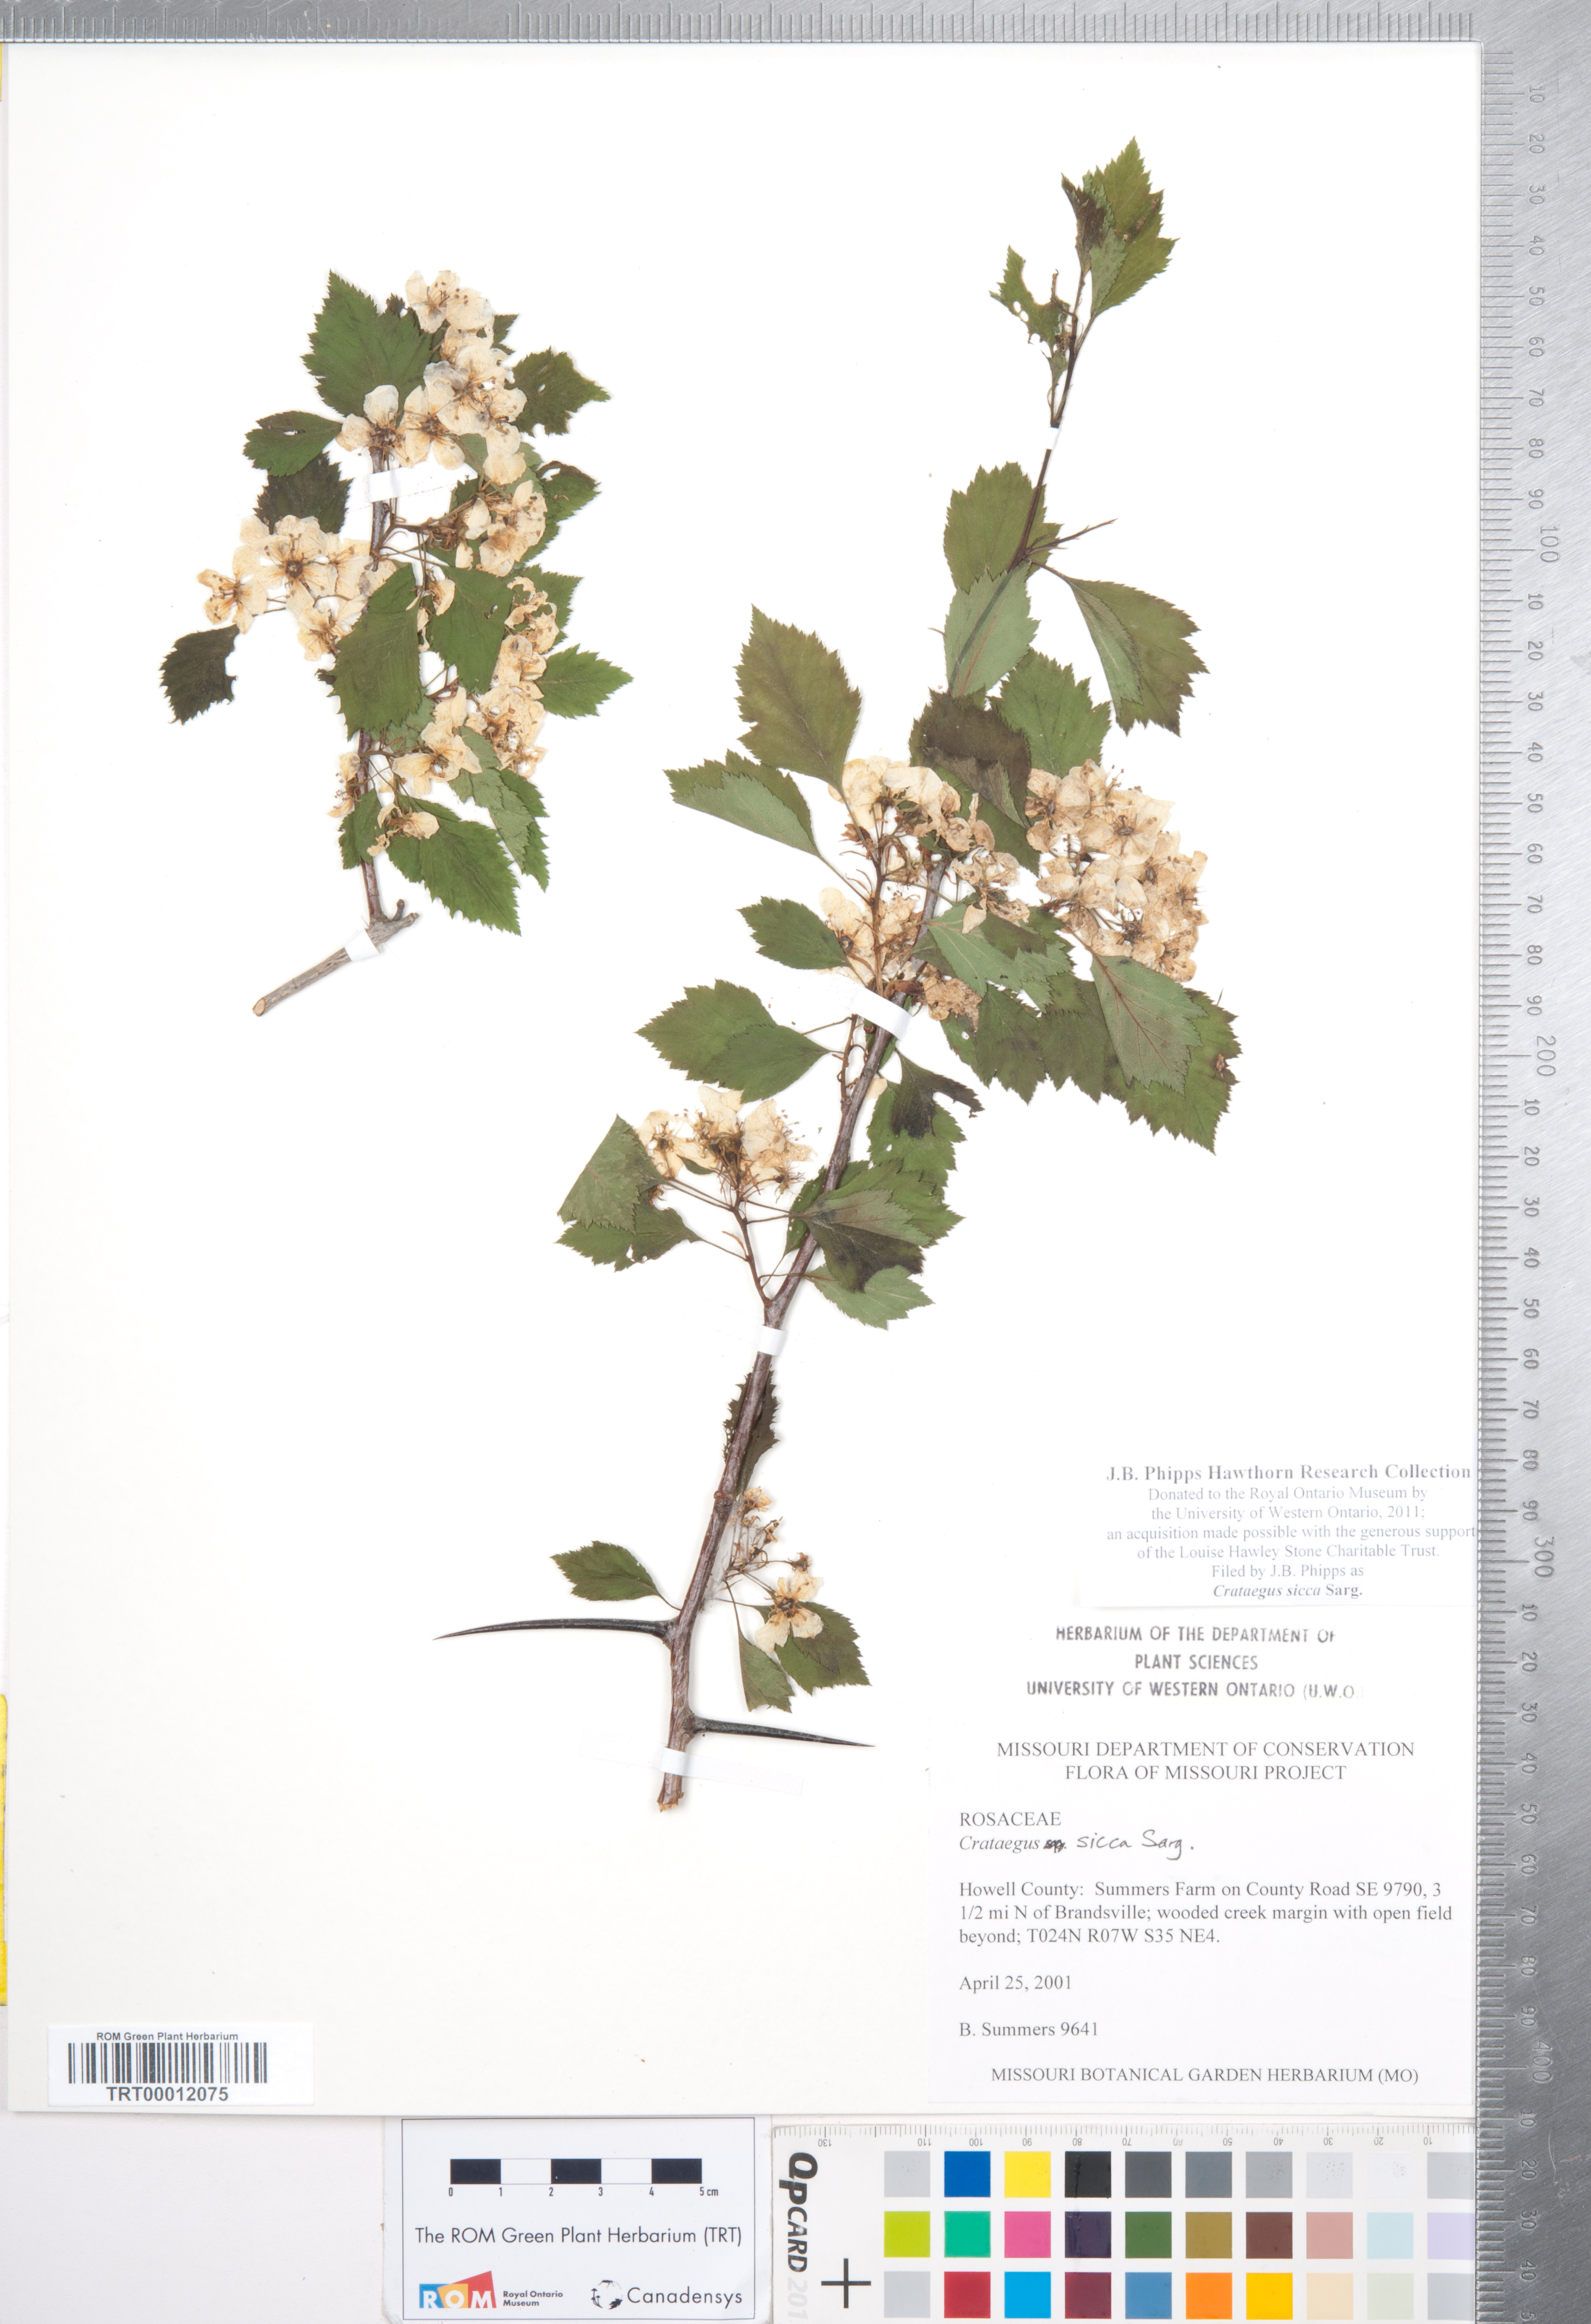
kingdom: Plantae
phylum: Tracheophyta
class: Magnoliopsida
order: Rosales
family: Rosaceae
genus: Crataegus
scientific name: Crataegus chrysocarpa
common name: Fire-berry hawthorn
